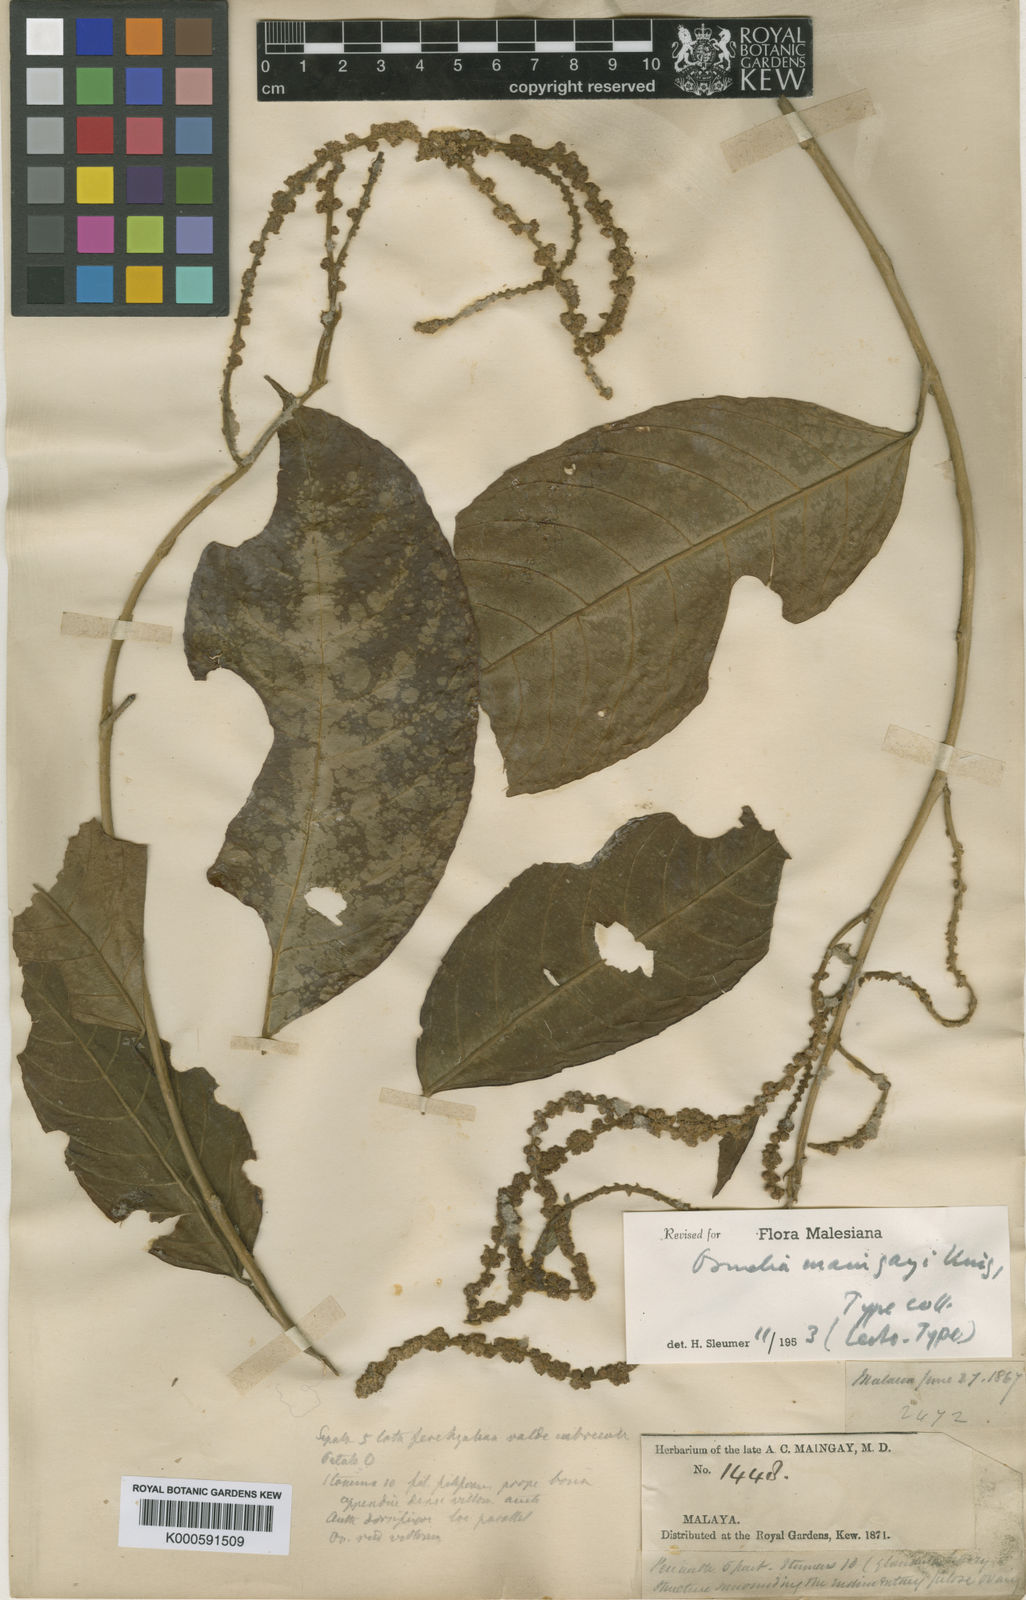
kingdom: Plantae
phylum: Tracheophyta
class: Magnoliopsida
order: Malpighiales
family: Salicaceae
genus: Osmelia
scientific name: Osmelia maingayi
